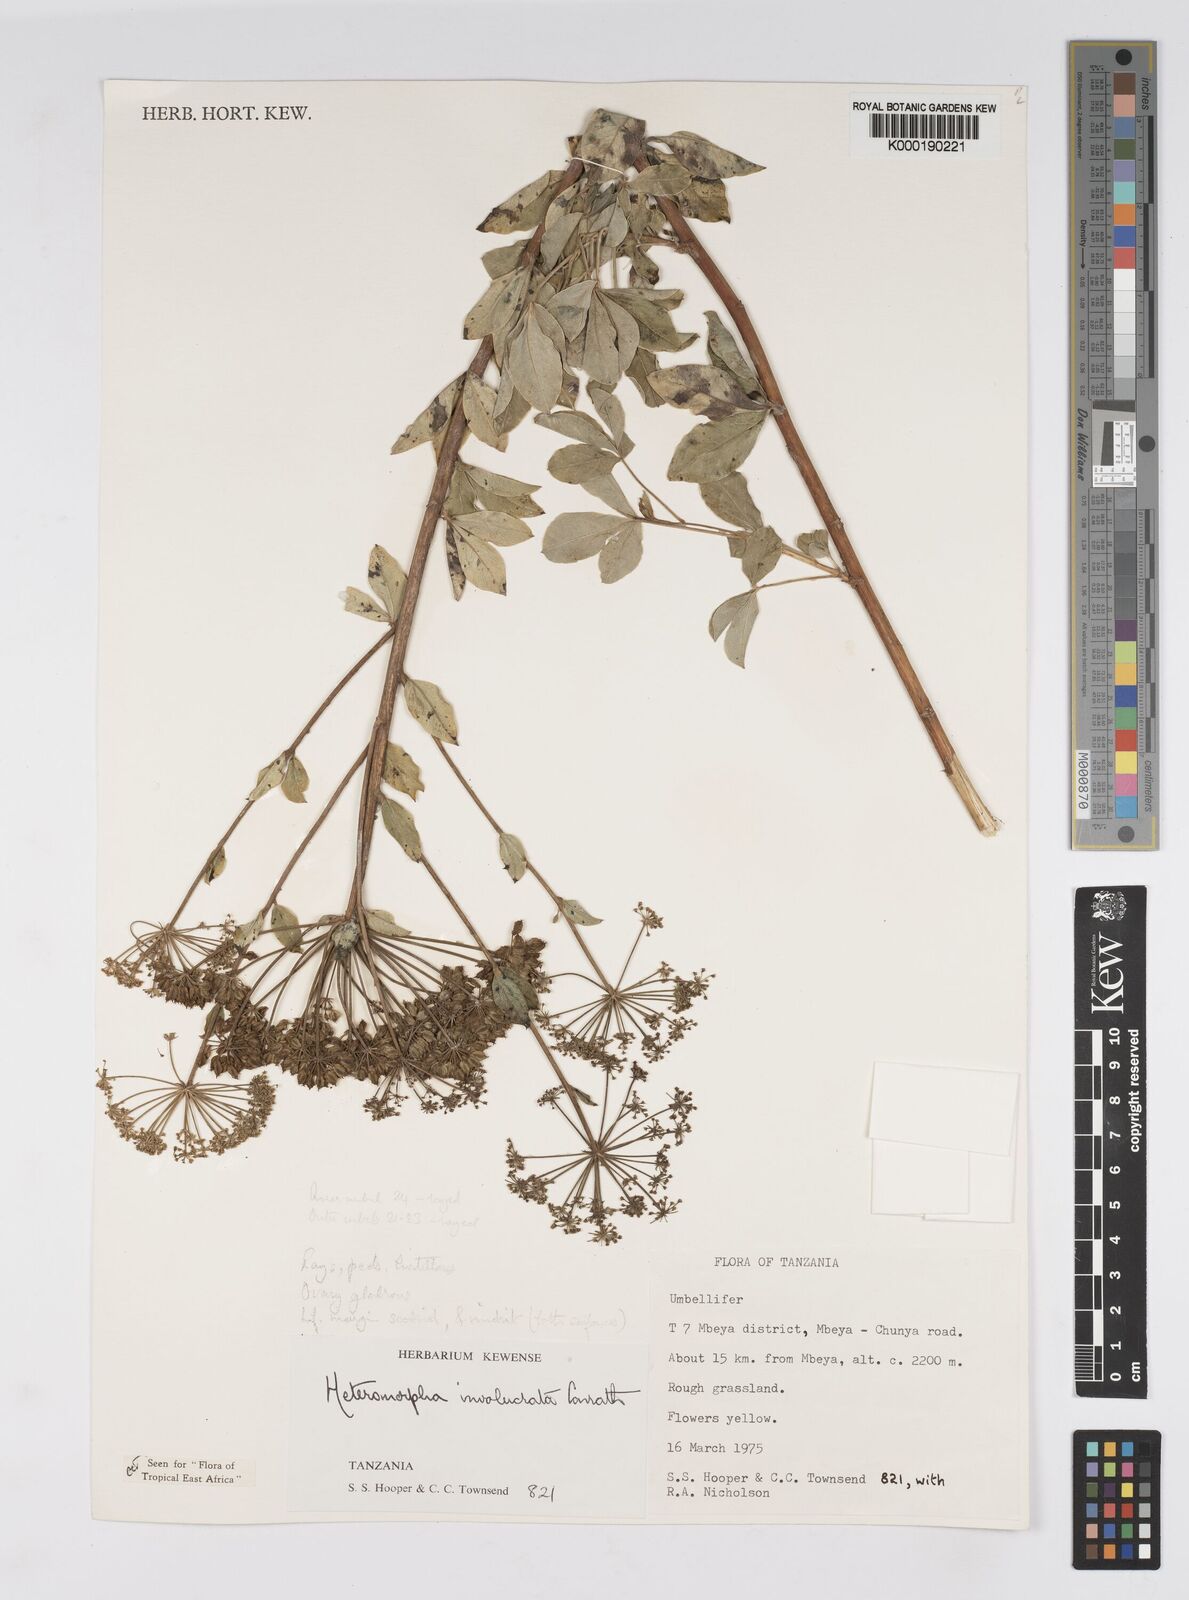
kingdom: Plantae
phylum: Tracheophyta
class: Magnoliopsida
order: Apiales
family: Apiaceae
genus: Heteromorpha
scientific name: Heteromorpha involucrata
